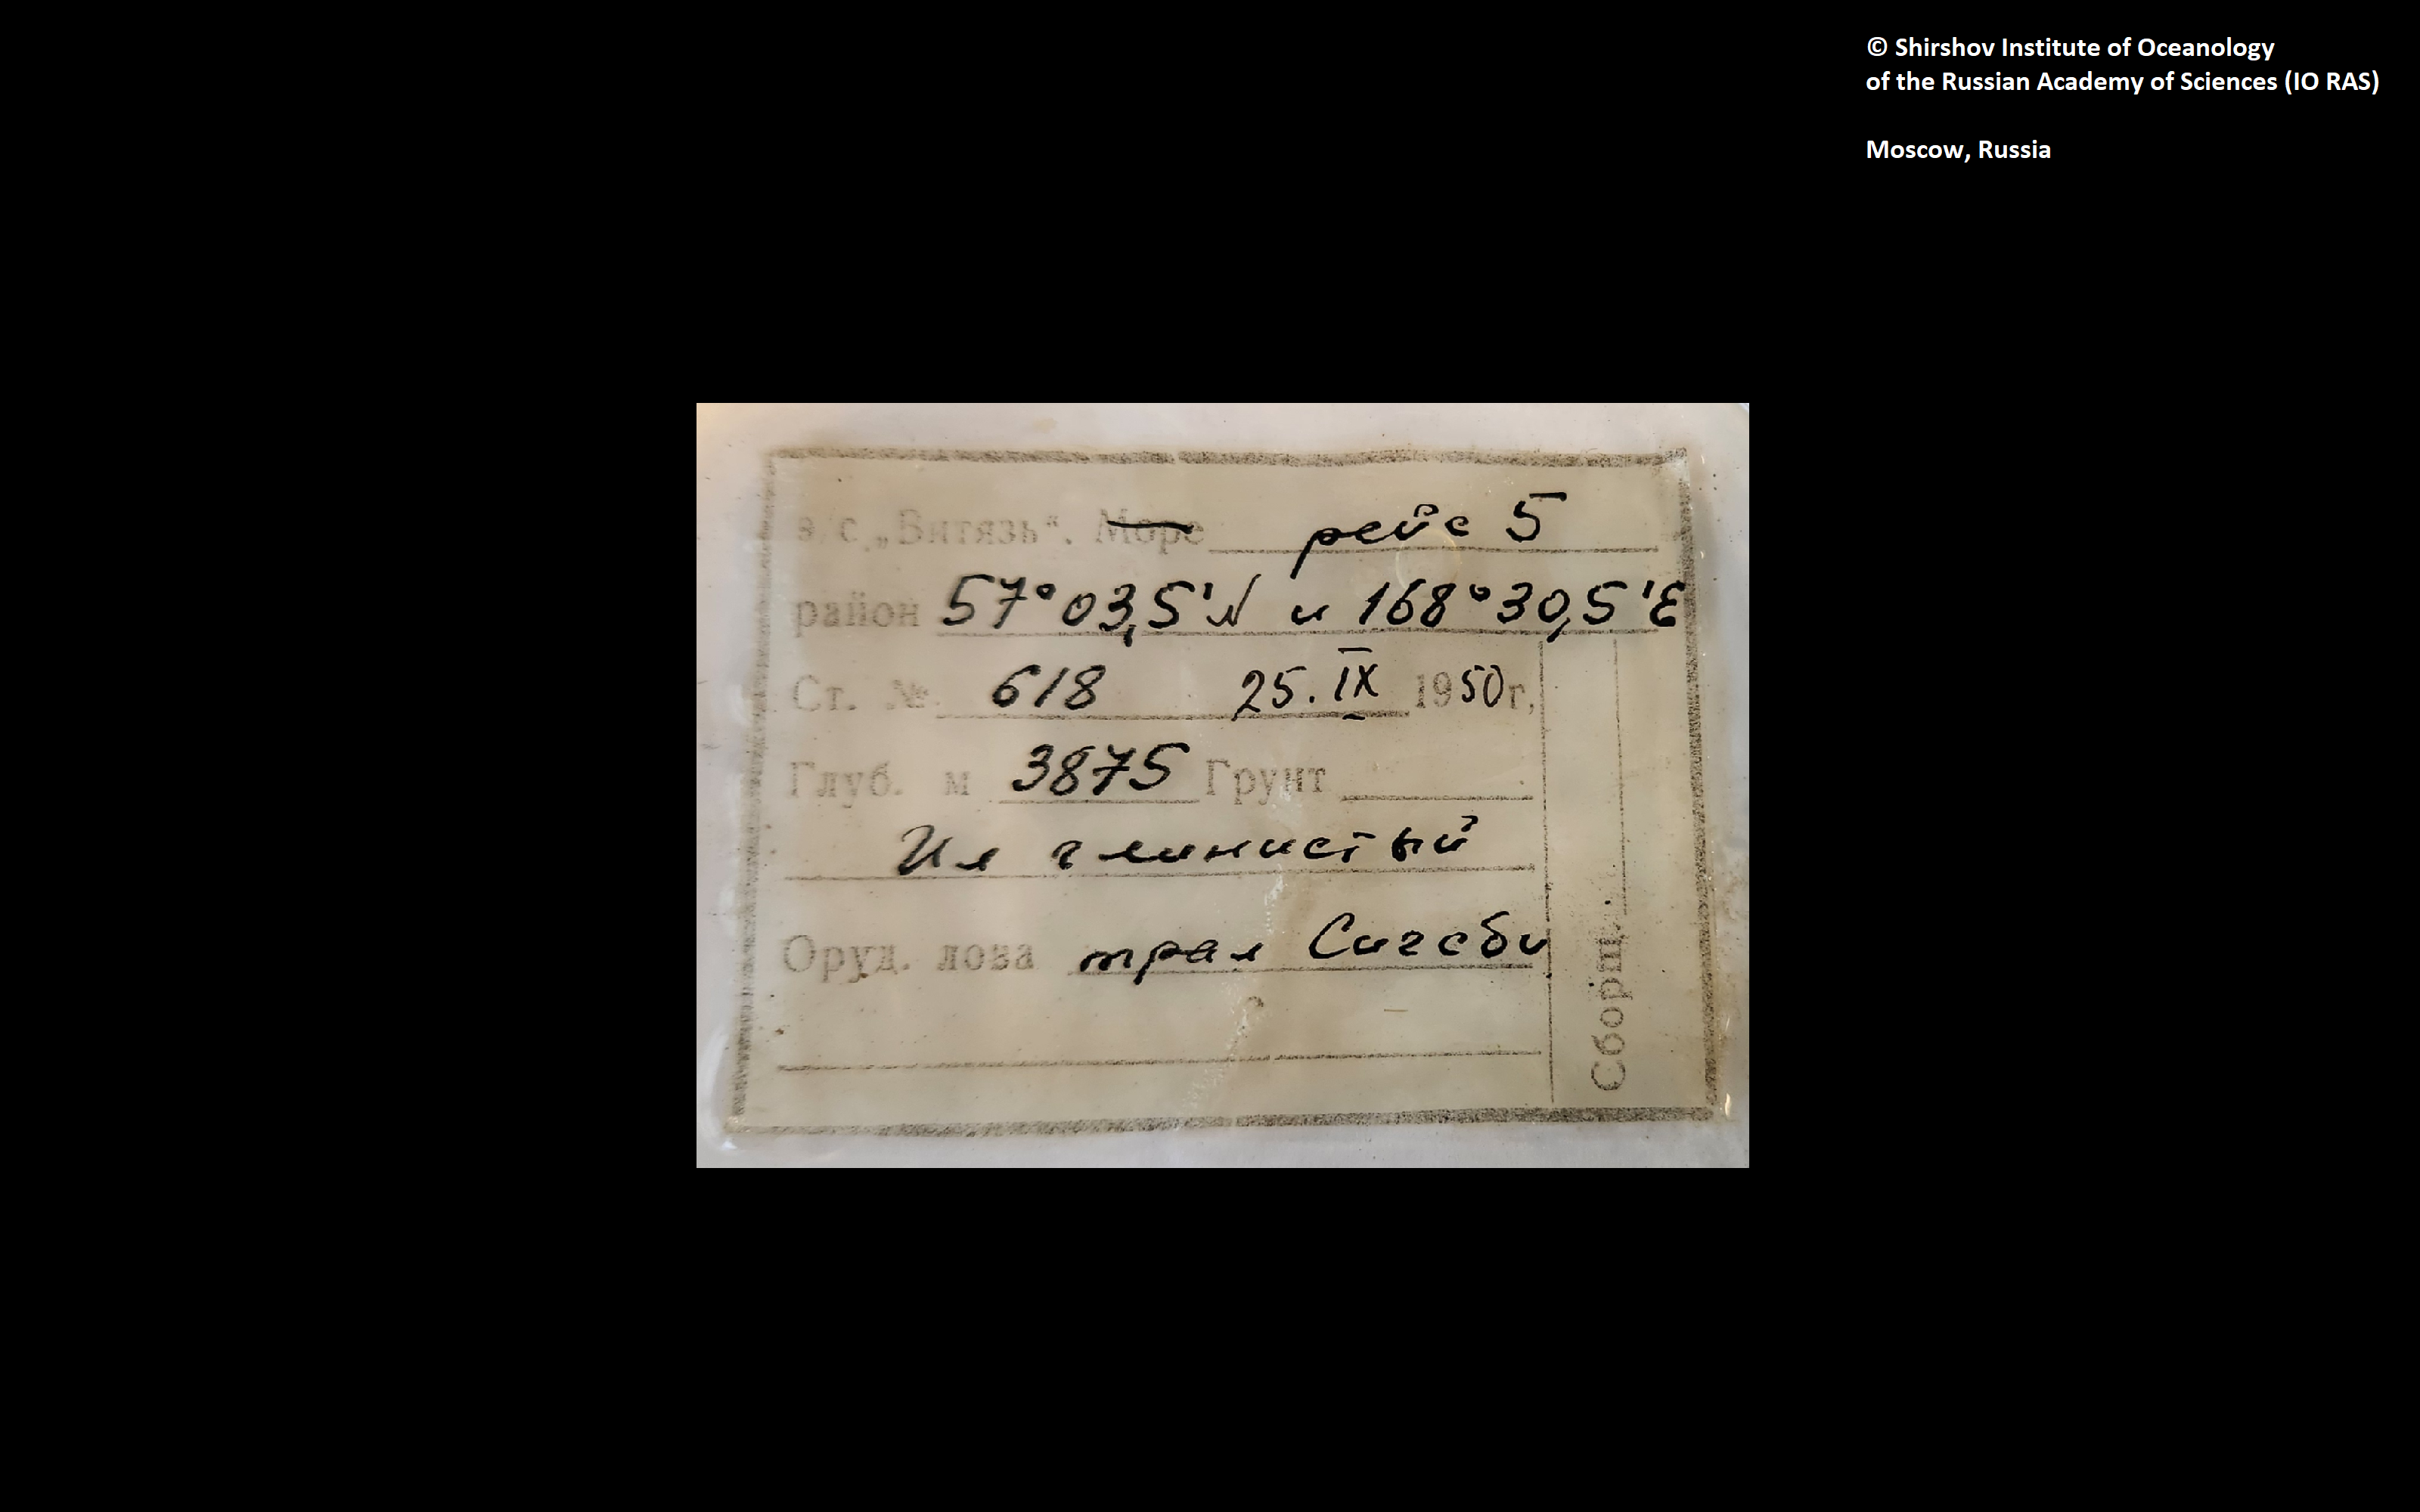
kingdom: Animalia
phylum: Annelida
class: Polychaeta
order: Echiuroidea
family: Bonelliidae
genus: Prometor
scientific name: Prometor gracilis
